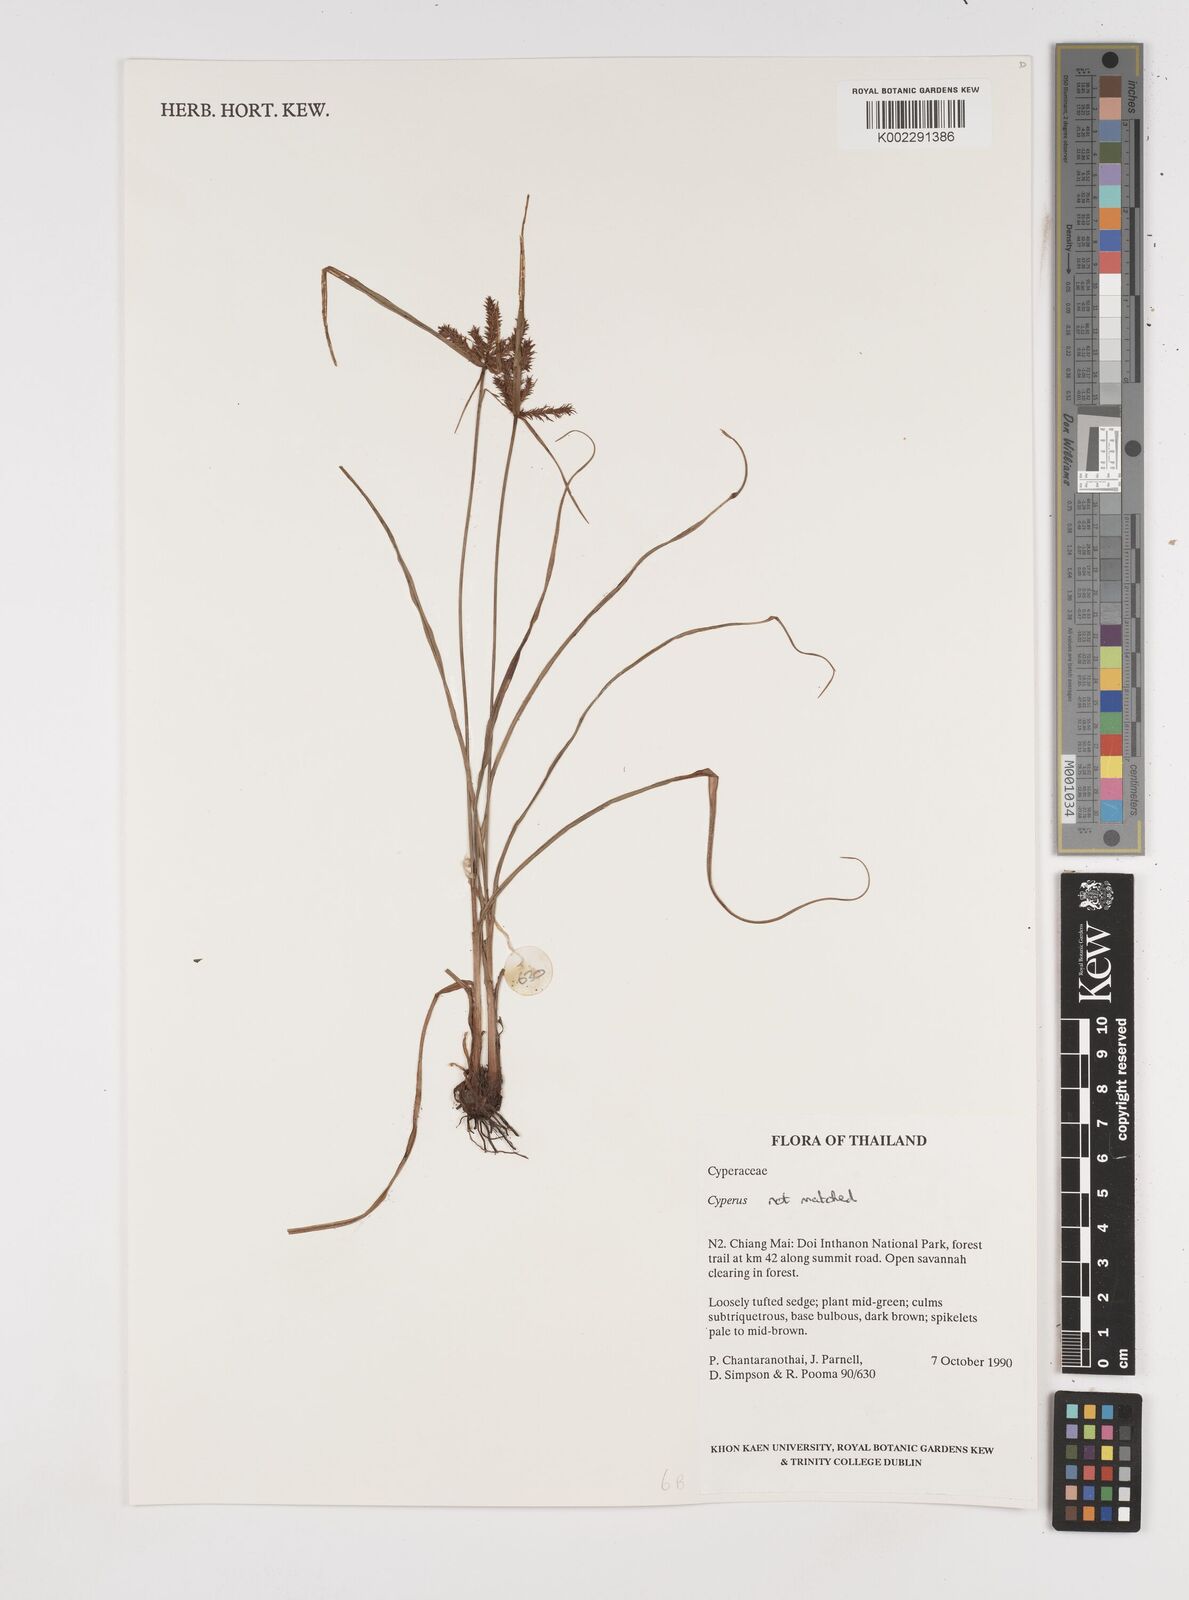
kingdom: Plantae
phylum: Tracheophyta
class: Liliopsida
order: Poales
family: Cyperaceae
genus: Cyperus
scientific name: Cyperus
